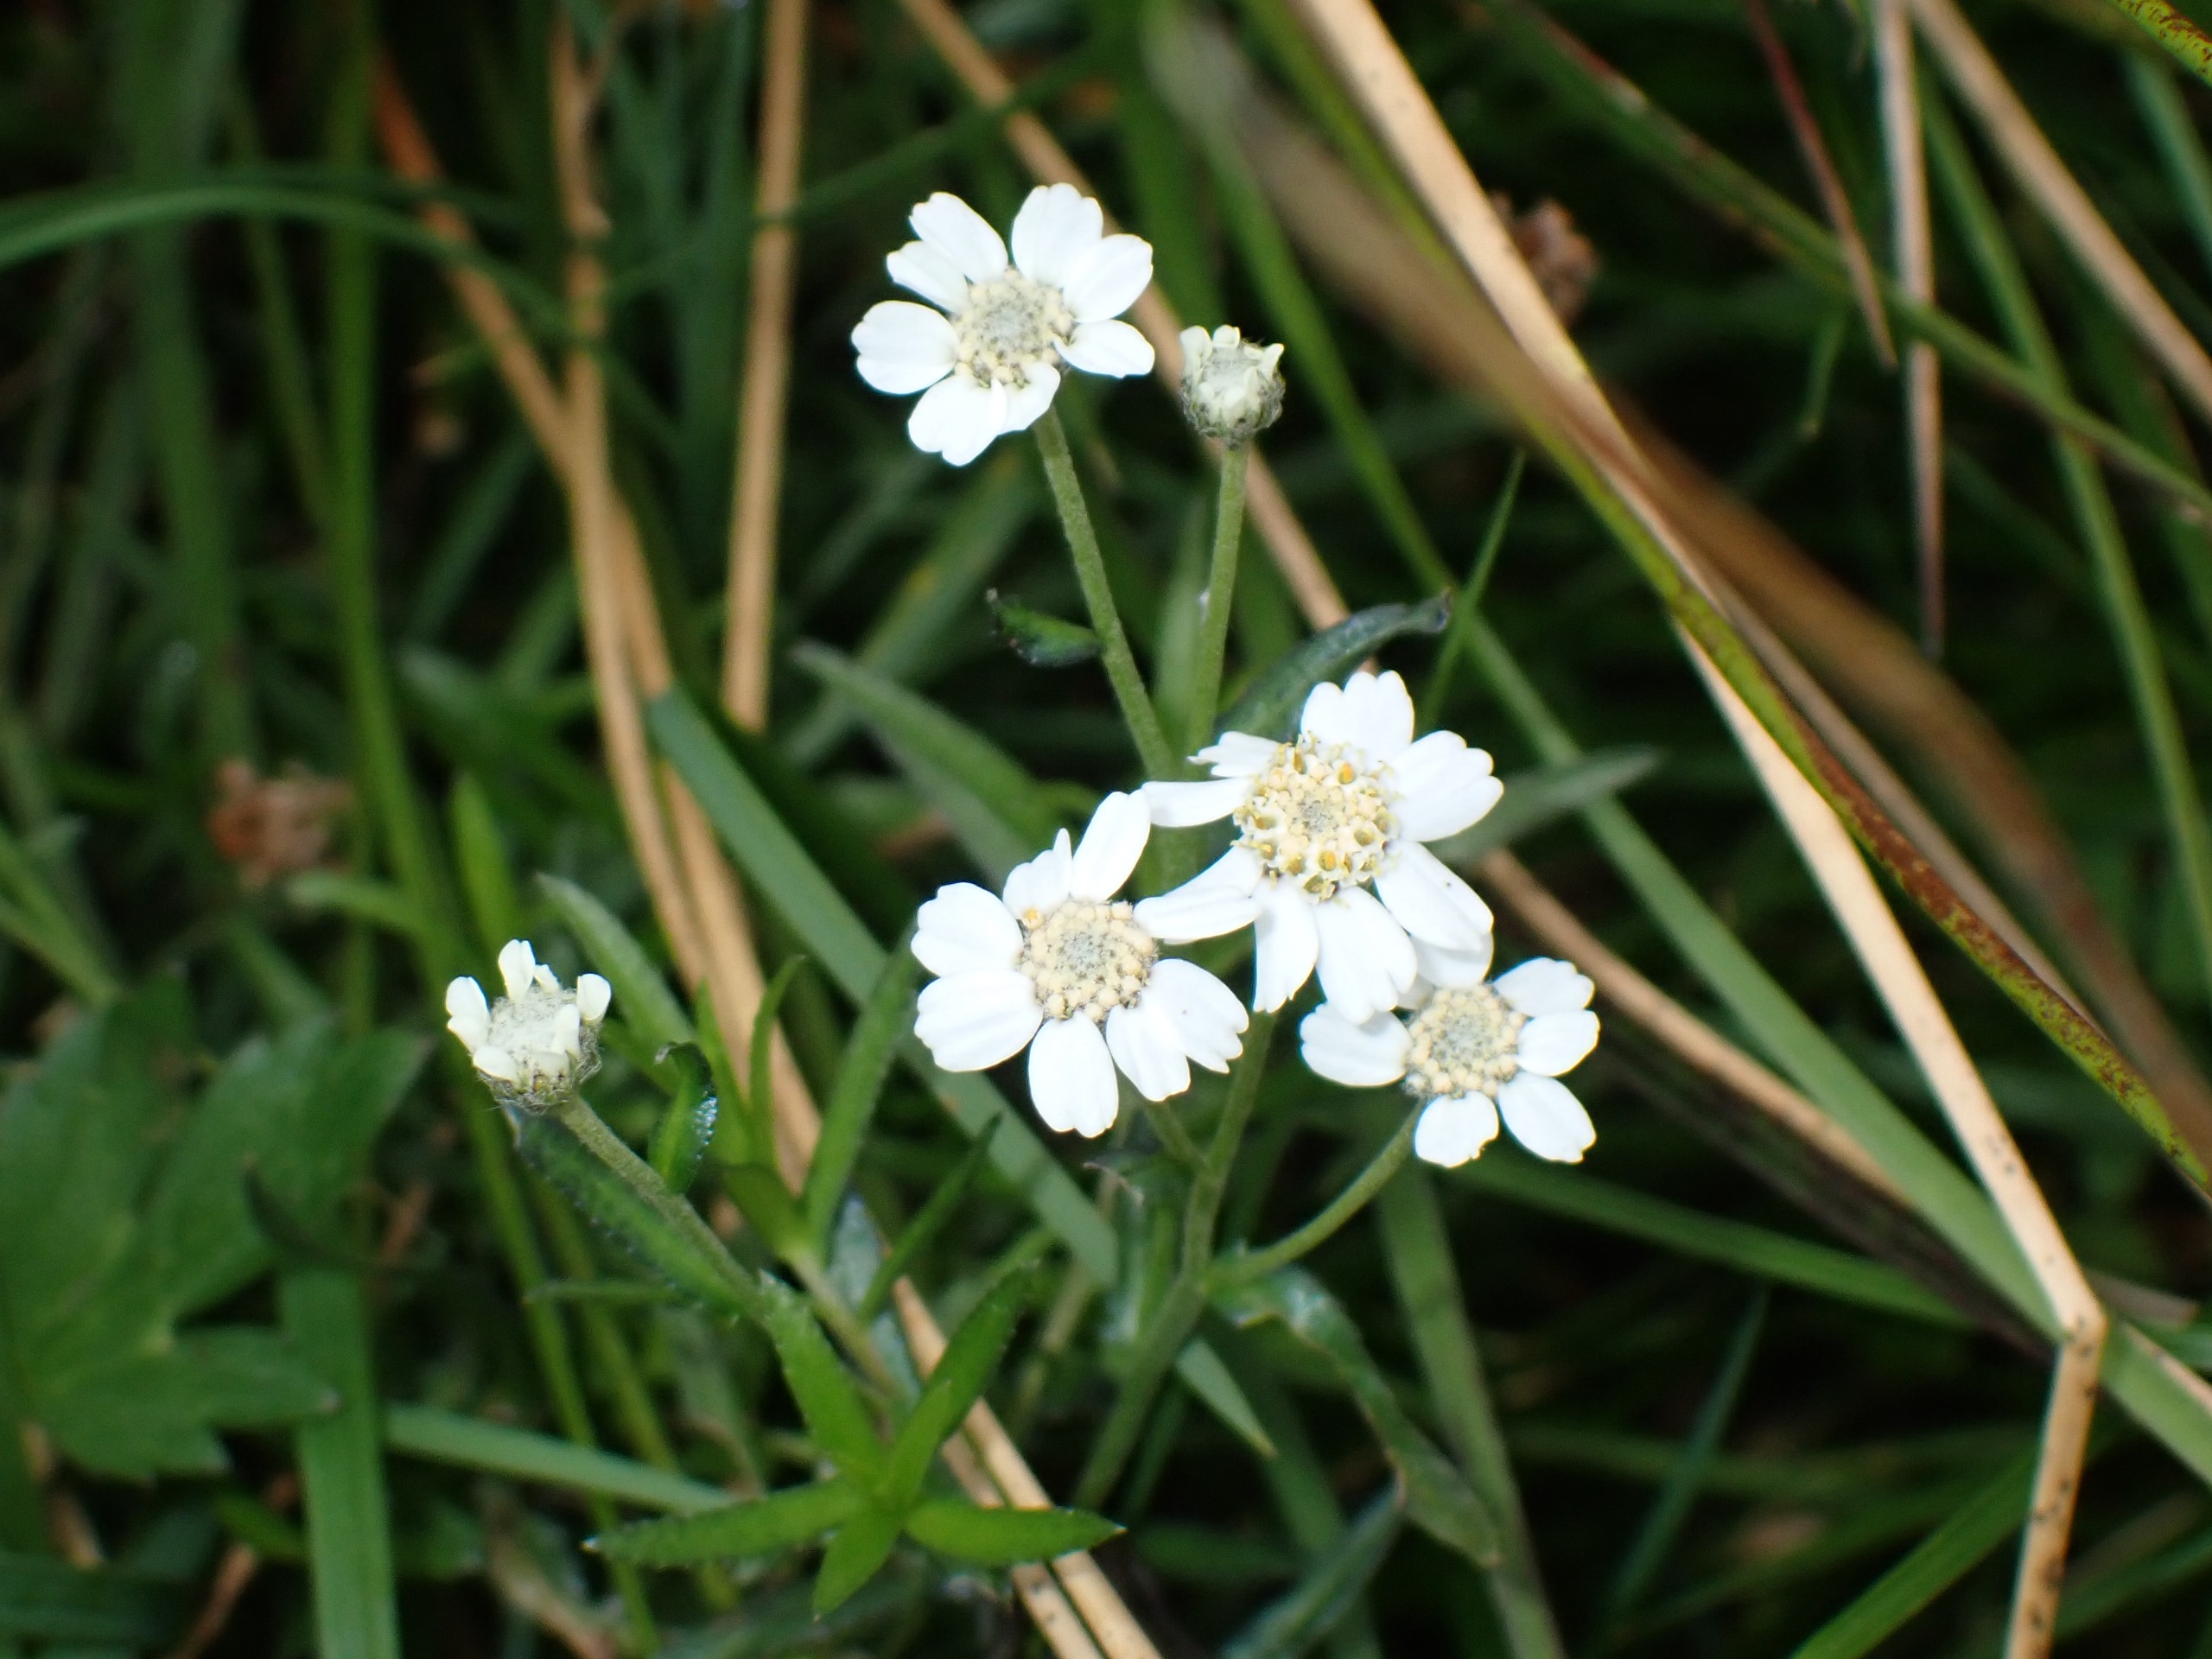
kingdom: Plantae
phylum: Tracheophyta
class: Magnoliopsida
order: Asterales
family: Asteraceae
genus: Achillea
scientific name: Achillea ptarmica
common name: Nyse-røllike
